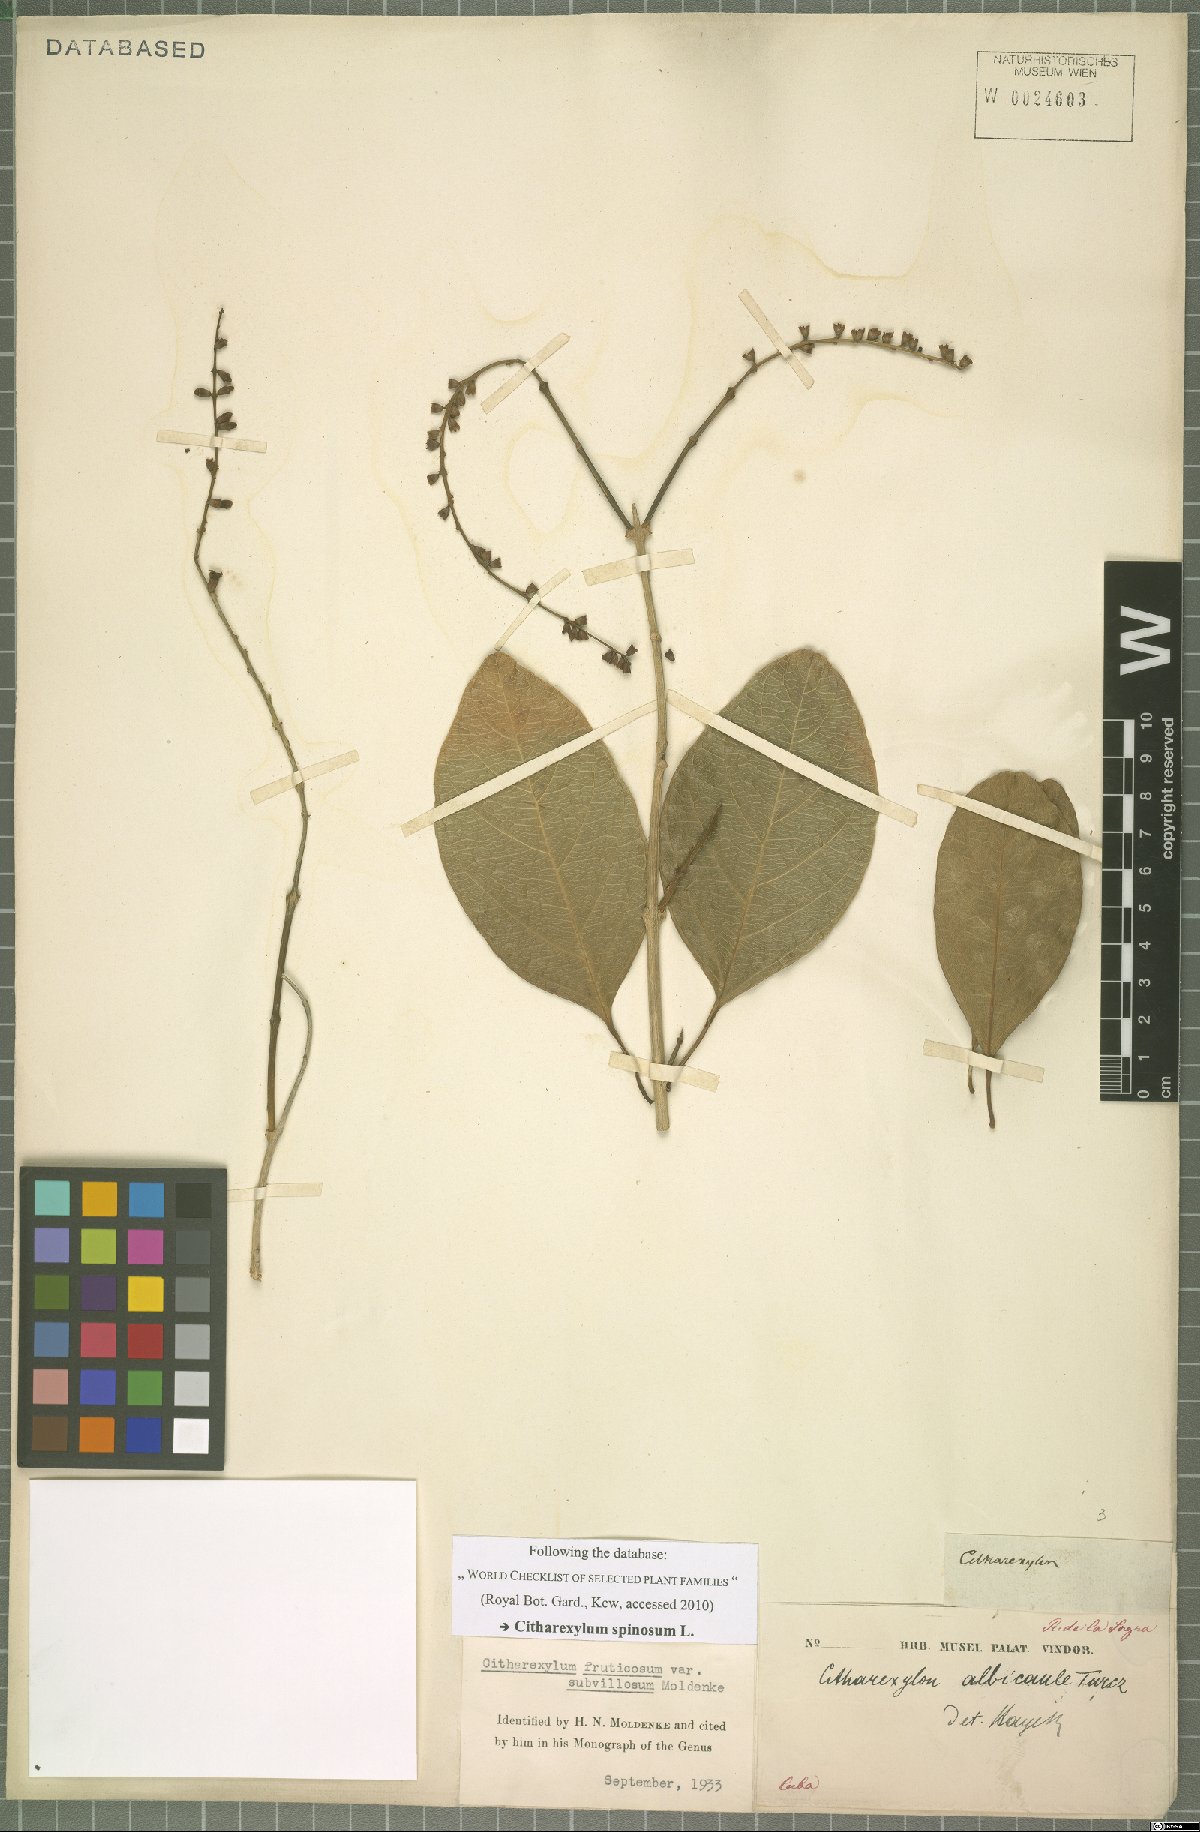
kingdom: Plantae
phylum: Tracheophyta
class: Magnoliopsida
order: Lamiales
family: Verbenaceae
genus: Citharexylum
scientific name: Citharexylum spinosum
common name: Fiddlewood
